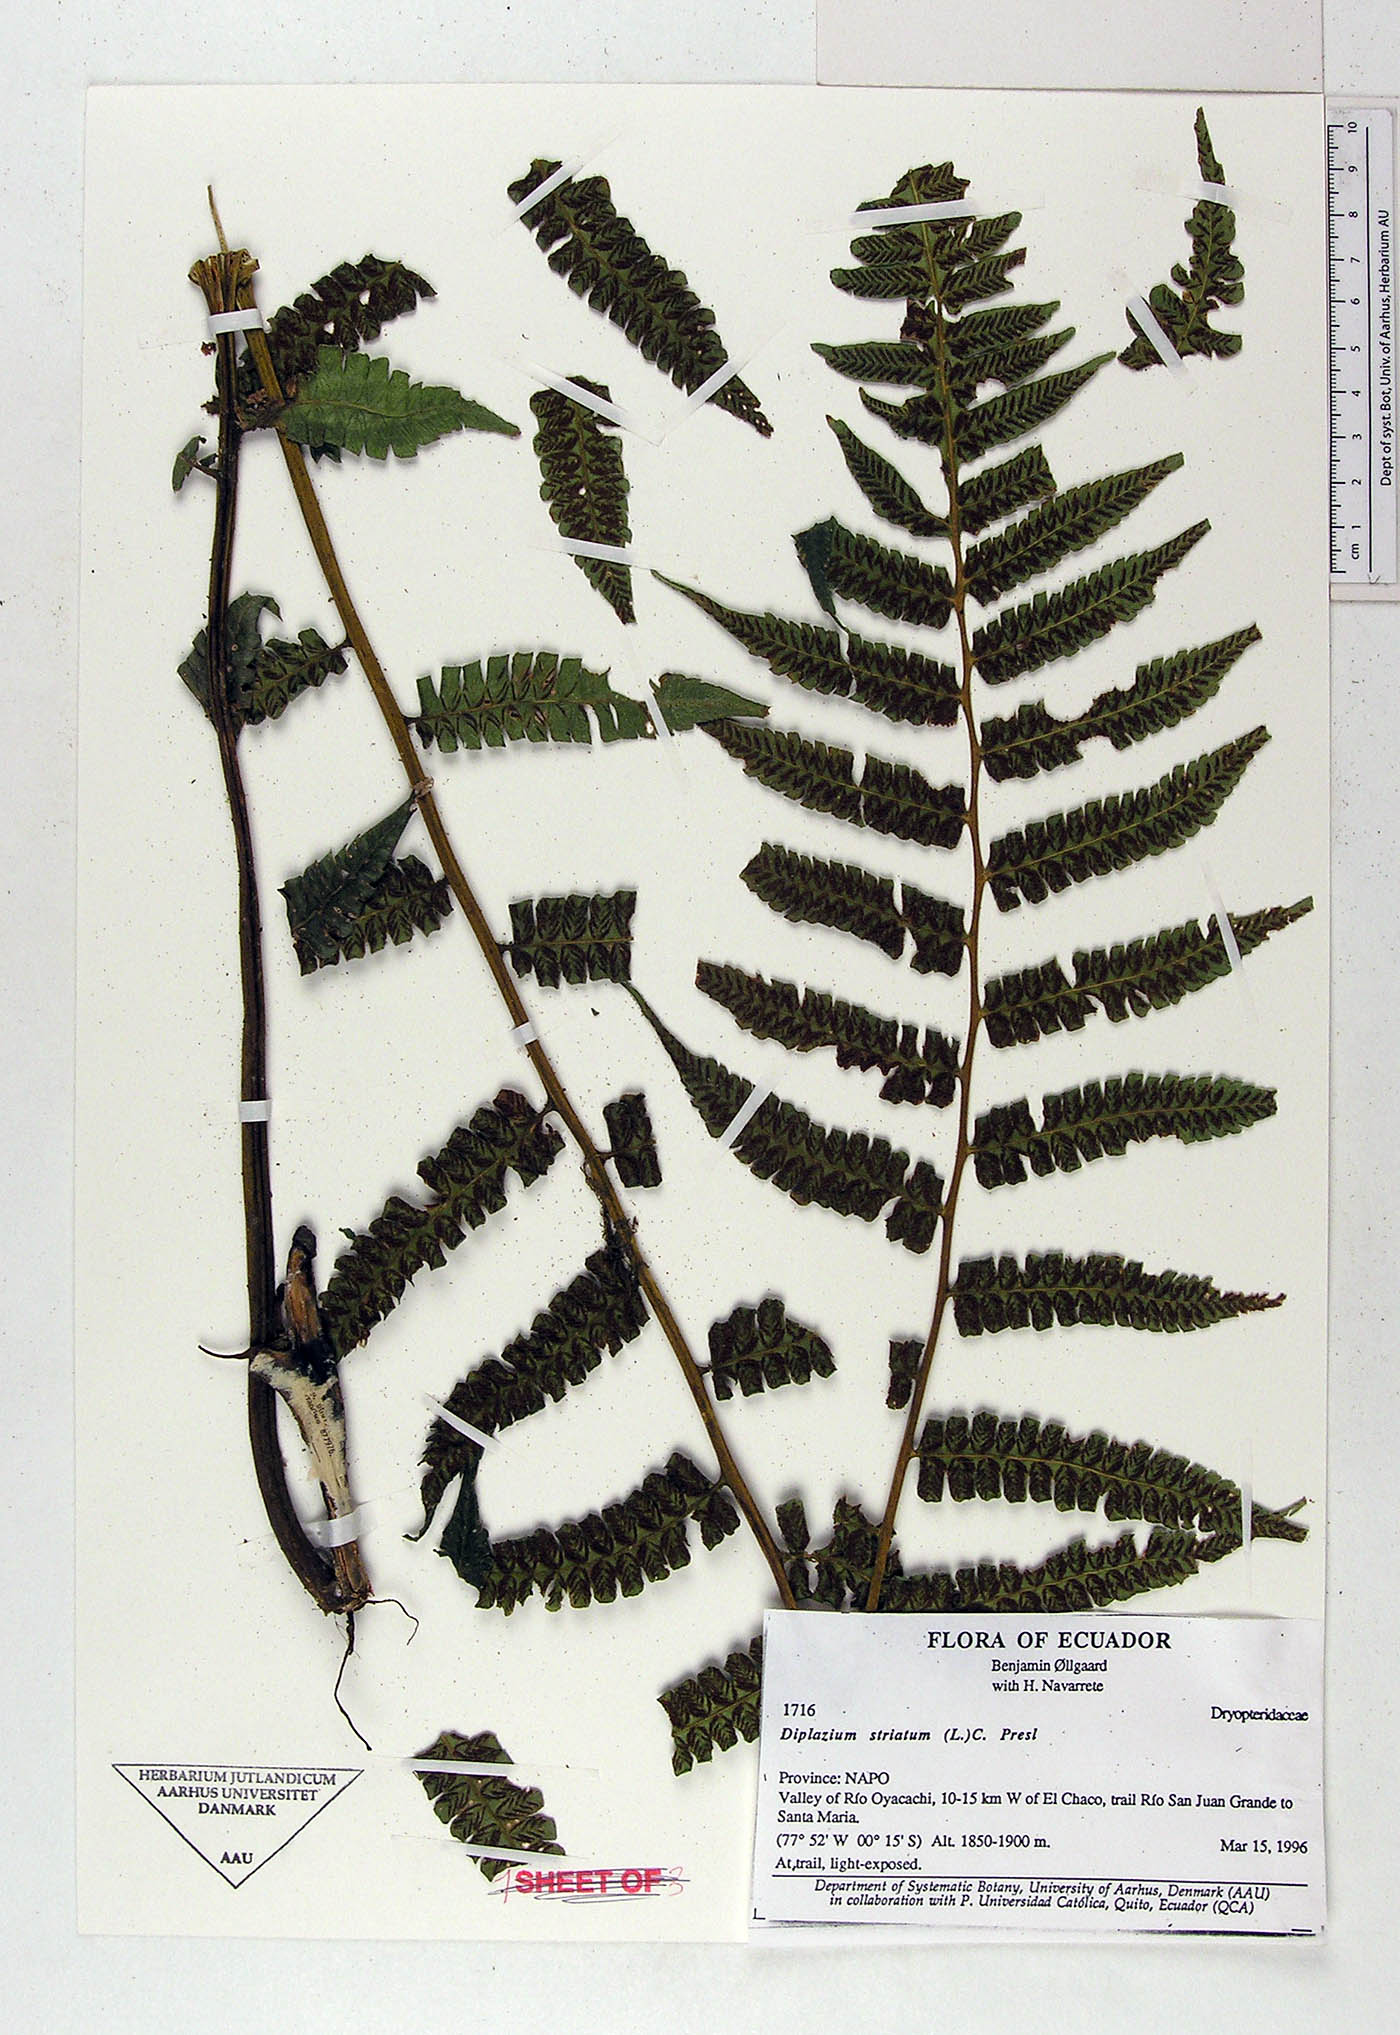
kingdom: Plantae
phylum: Tracheophyta
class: Polypodiopsida
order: Polypodiales
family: Athyriaceae
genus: Diplazium
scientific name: Diplazium striatum
